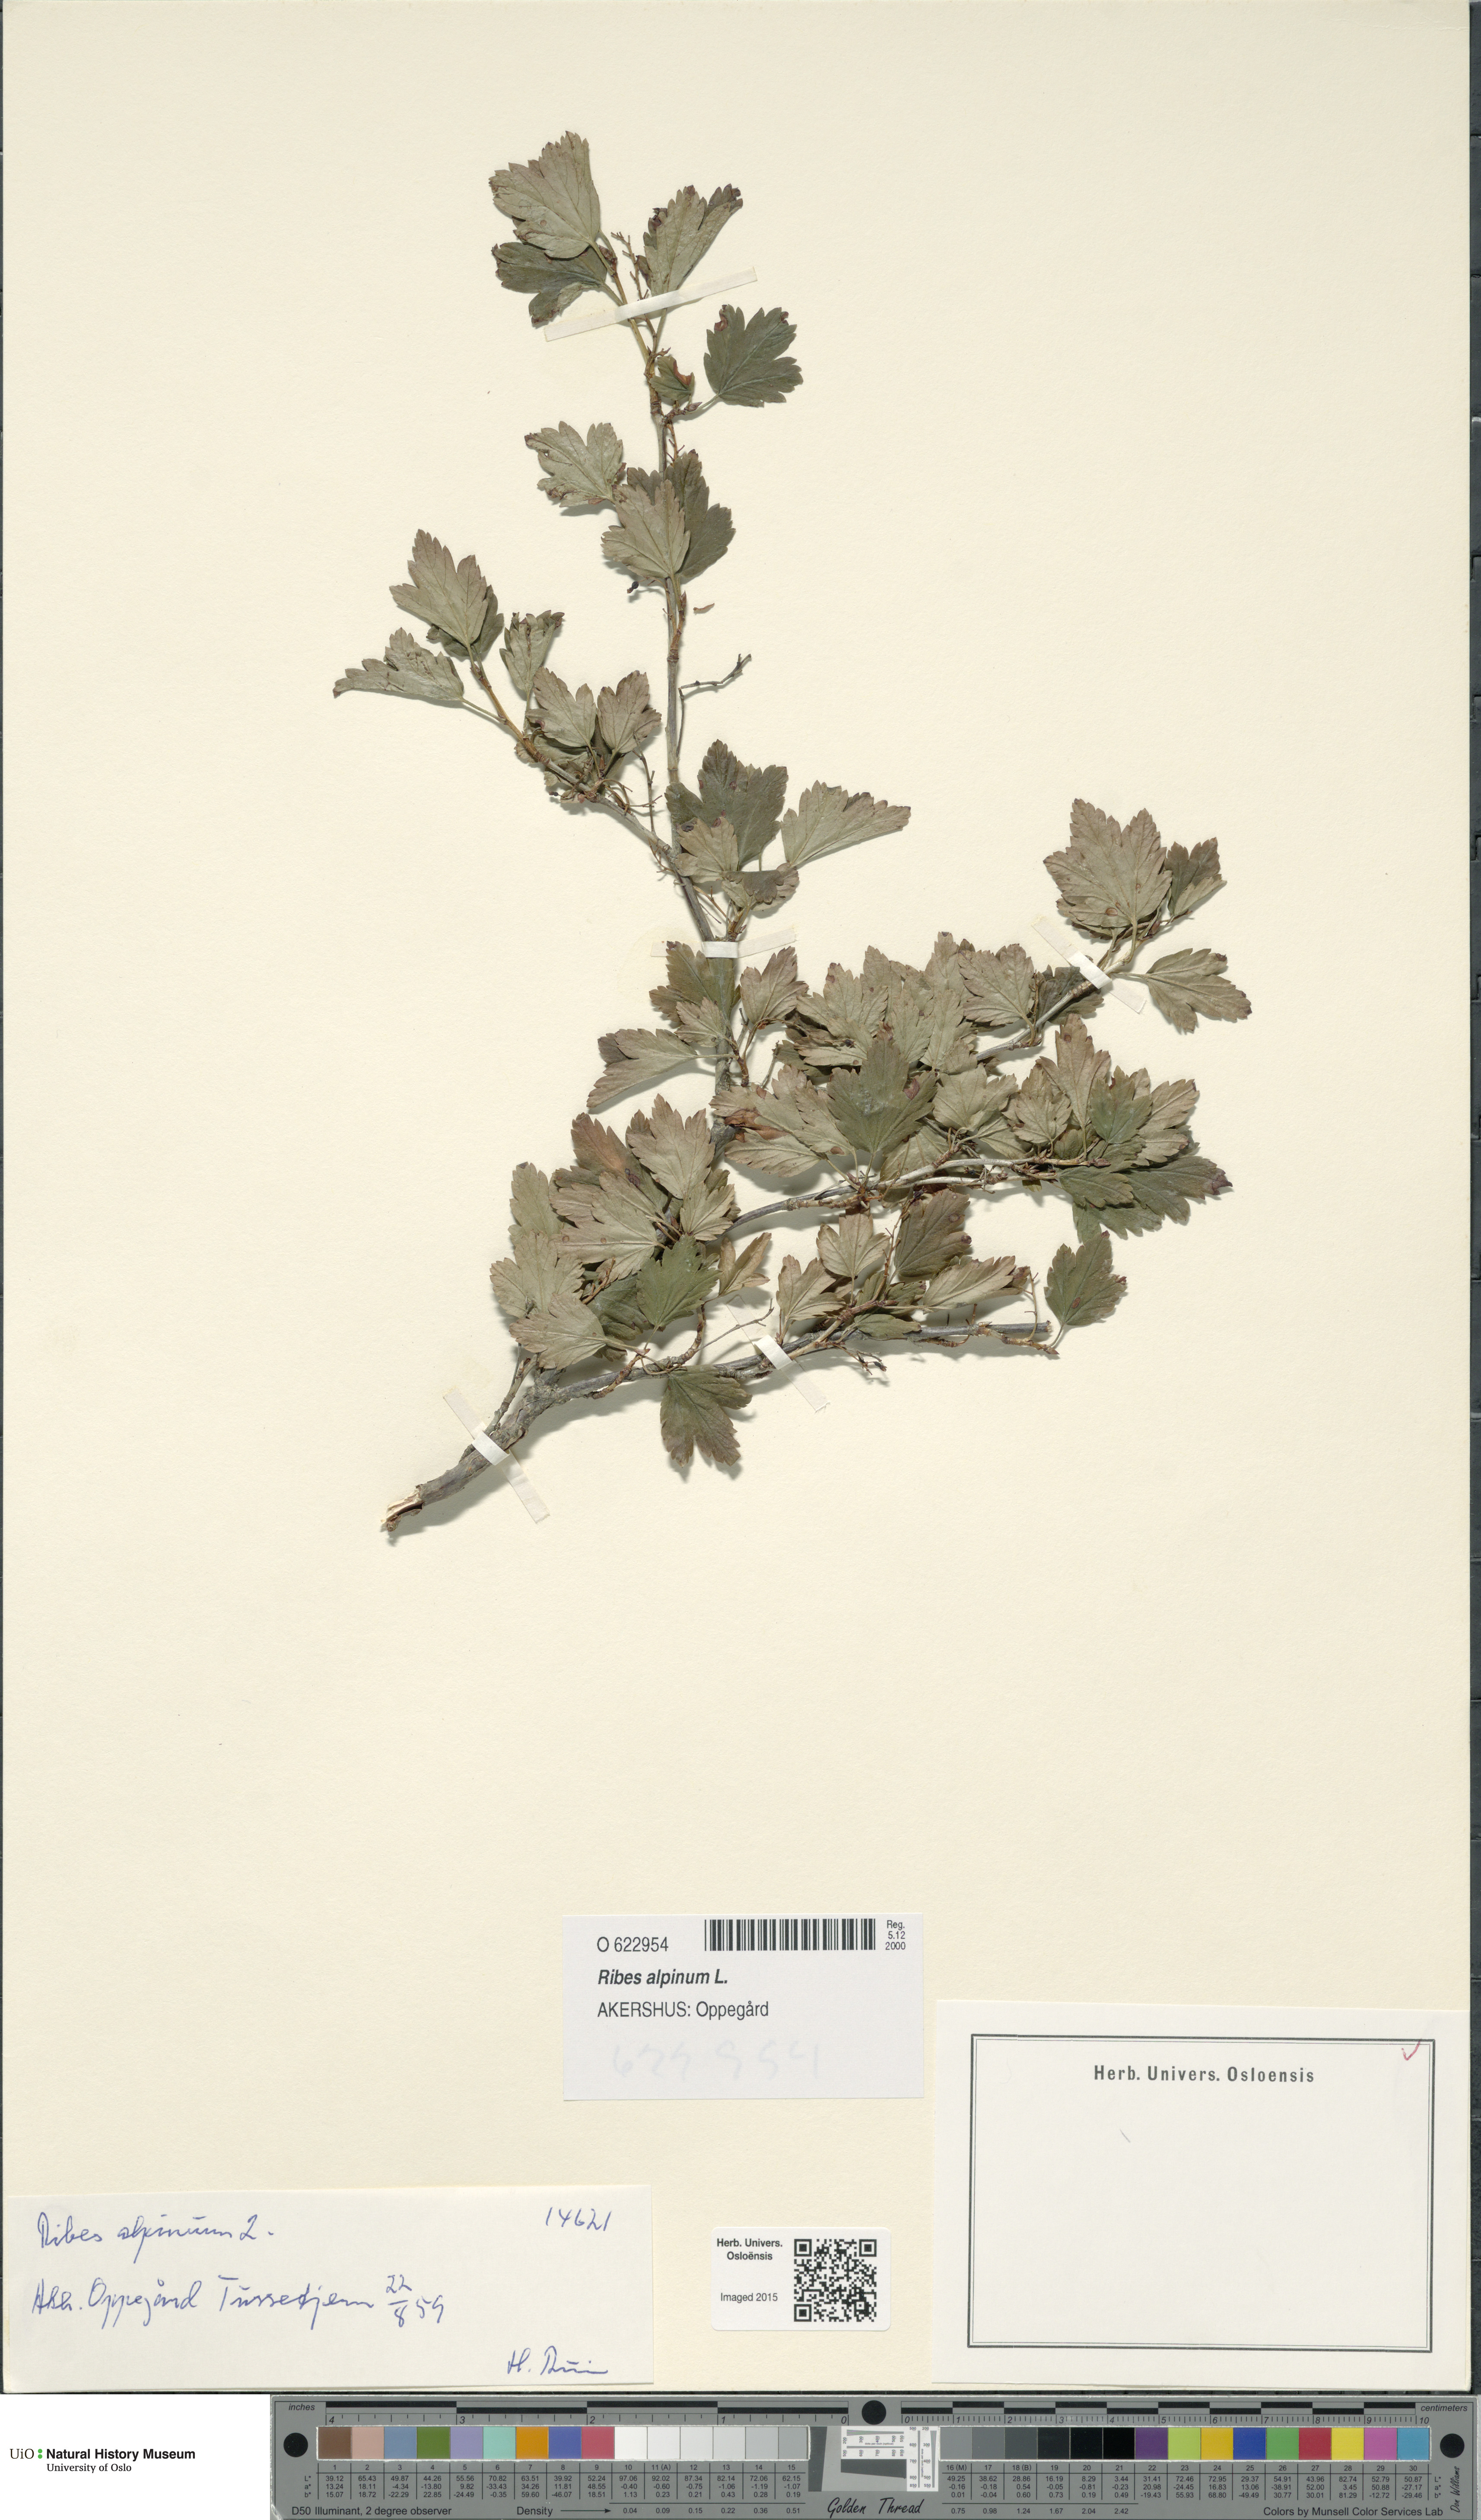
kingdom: Plantae
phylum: Tracheophyta
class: Magnoliopsida
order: Saxifragales
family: Grossulariaceae
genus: Ribes
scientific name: Ribes alpinum
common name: Alpine currant
